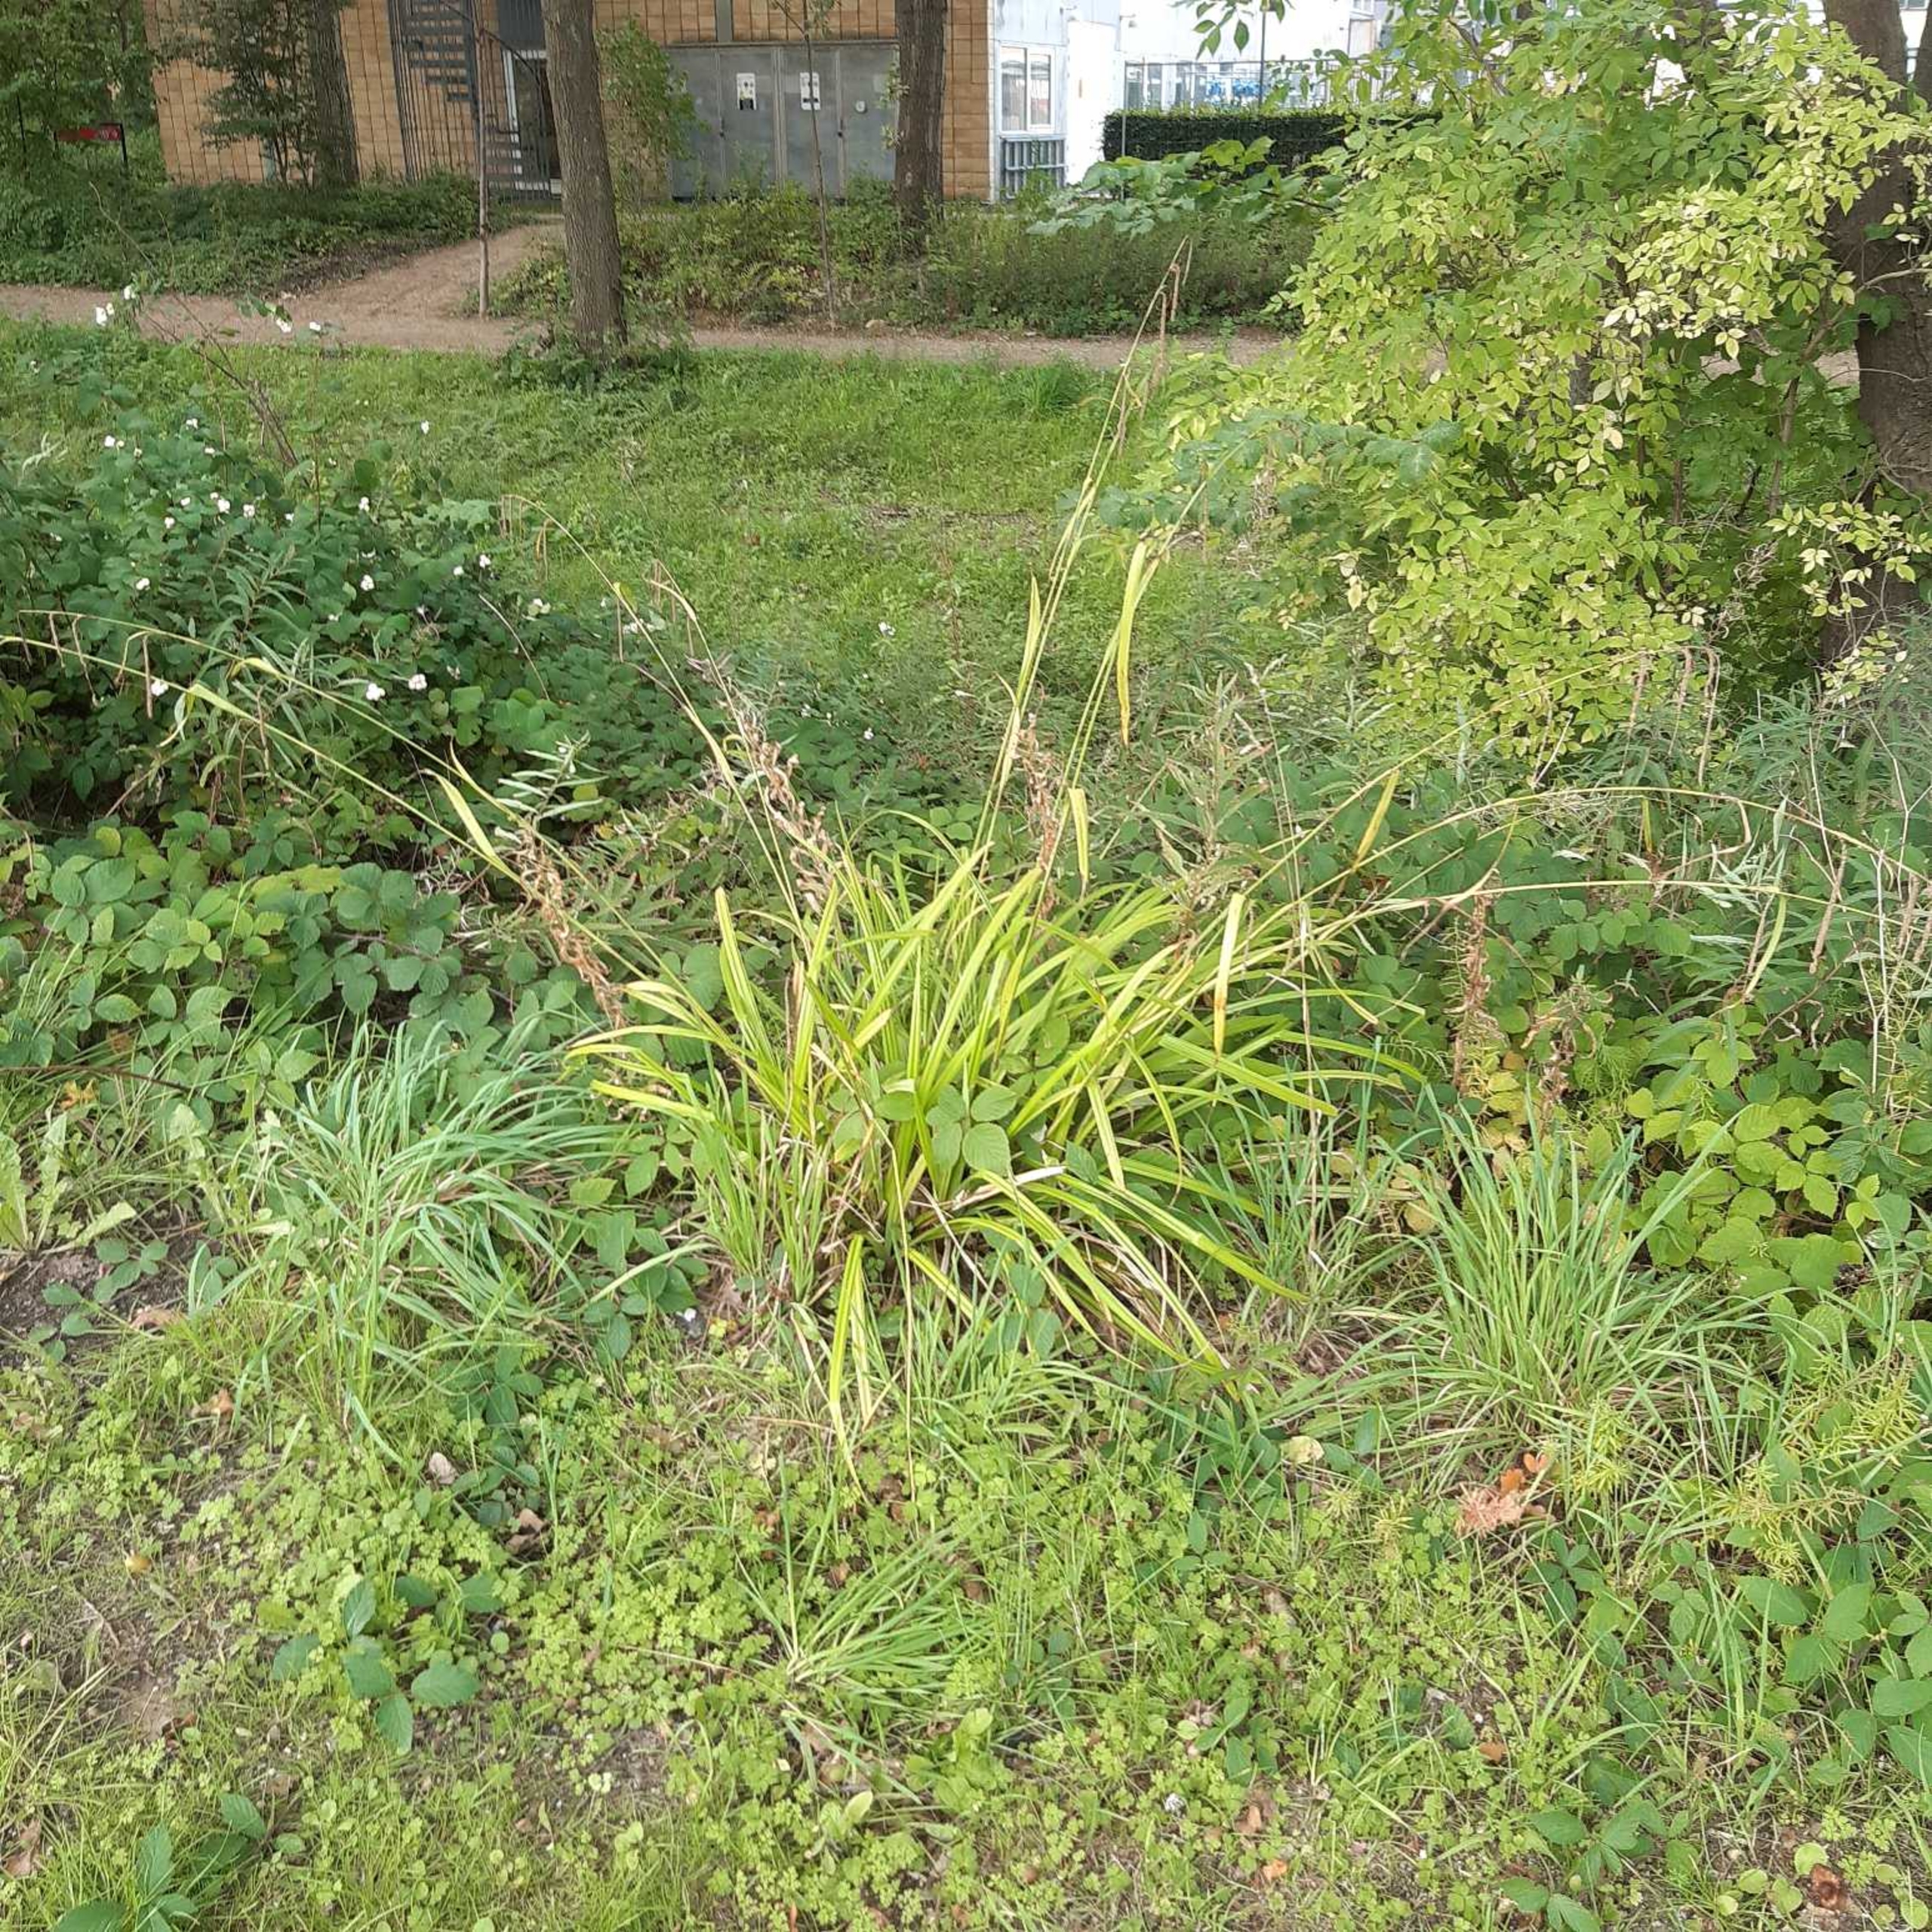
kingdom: Plantae
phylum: Tracheophyta
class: Liliopsida
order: Poales
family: Cyperaceae
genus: Carex
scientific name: Carex pendula
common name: Kæmpe-star
